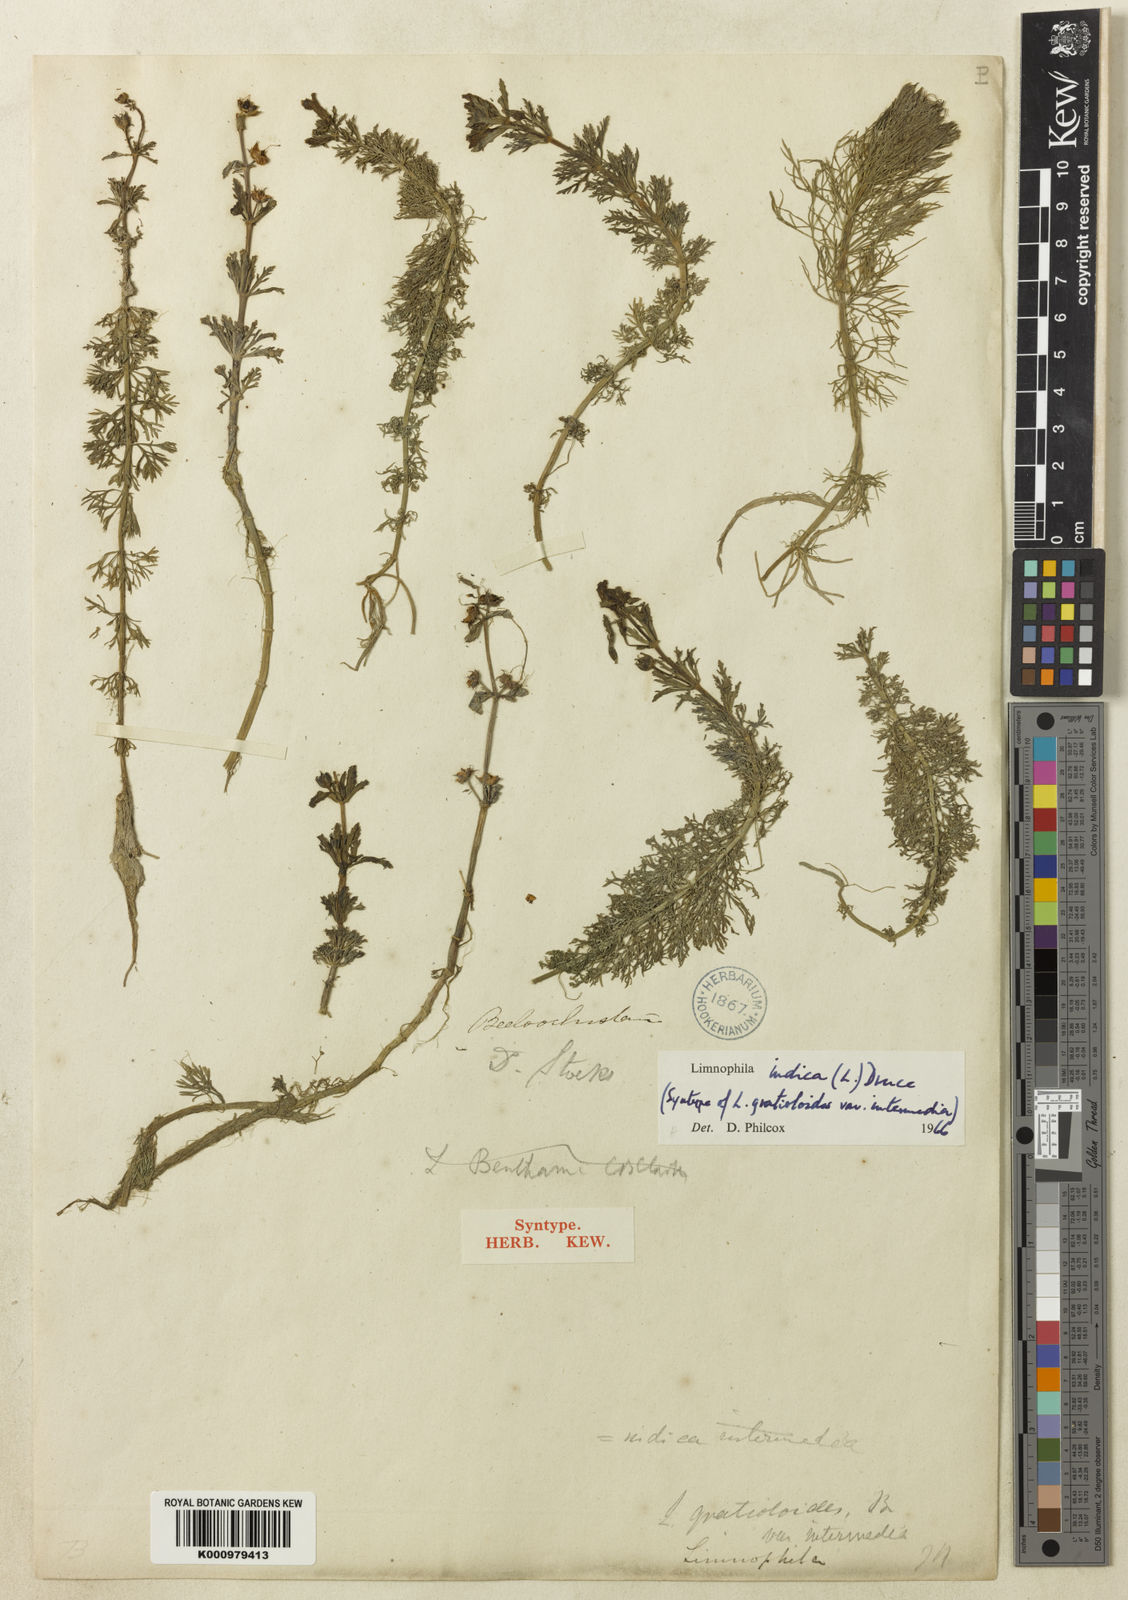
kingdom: Plantae
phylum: Tracheophyta
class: Magnoliopsida
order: Lamiales
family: Plantaginaceae
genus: Limnophila
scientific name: Limnophila indica
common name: Indian marshweed
